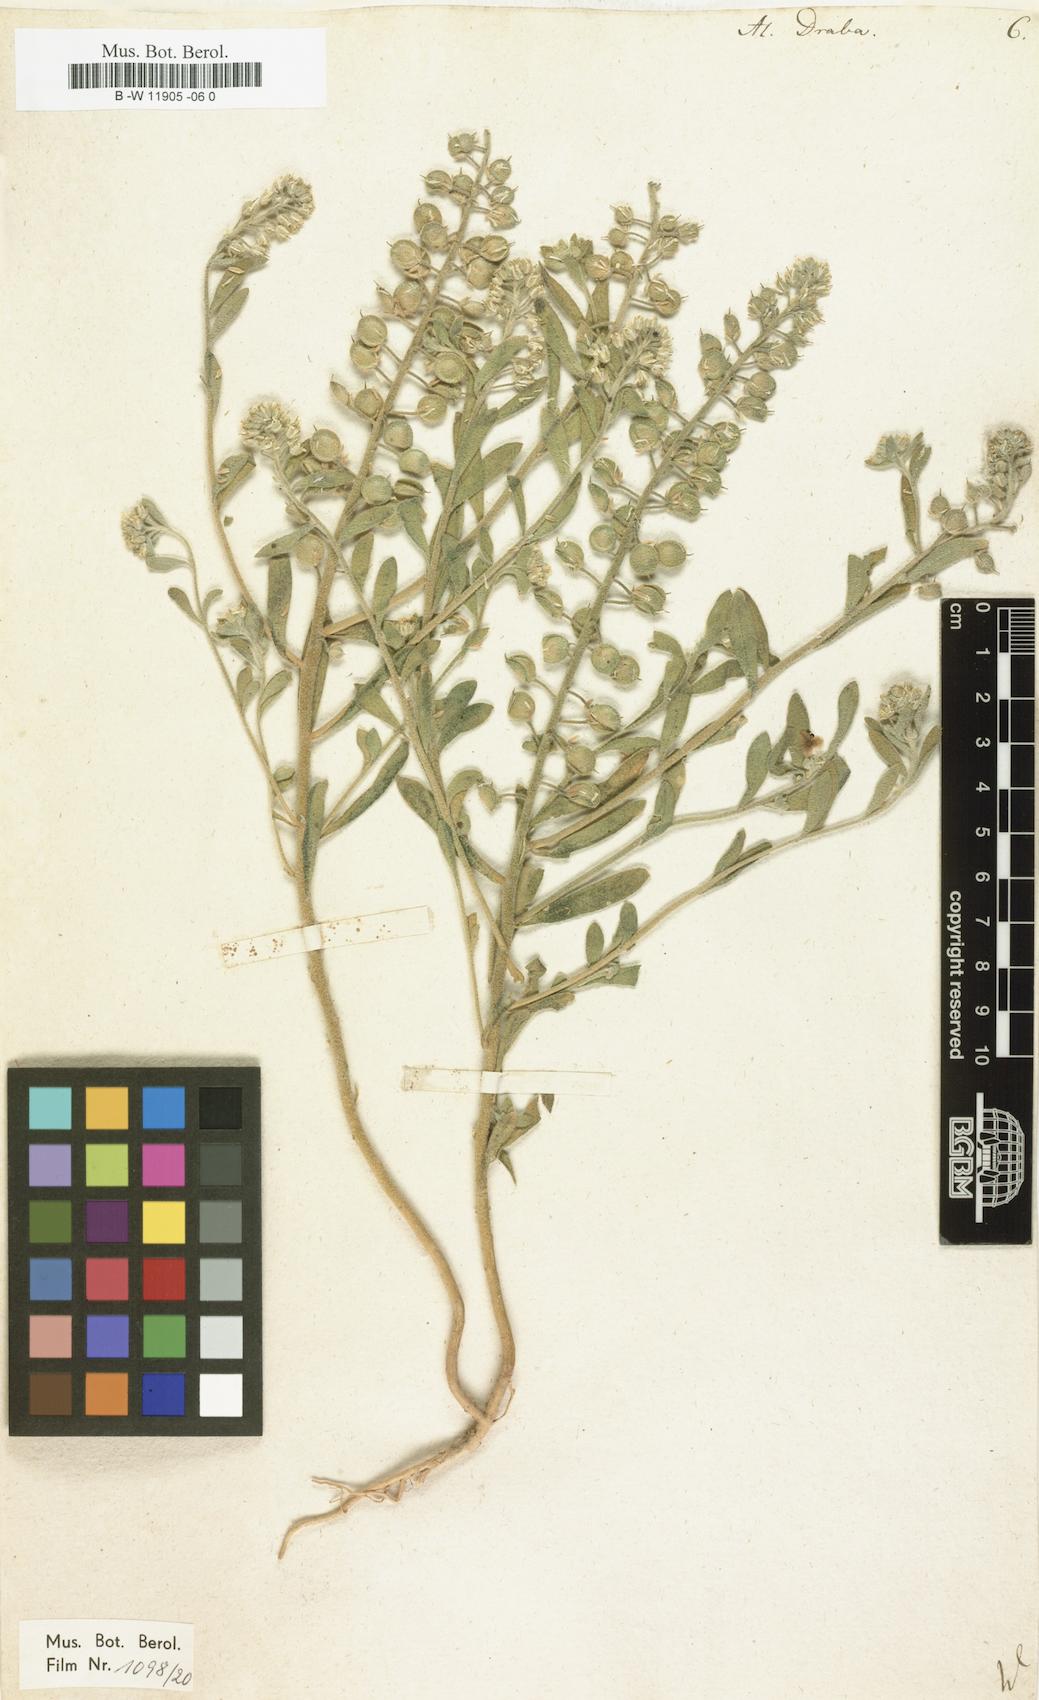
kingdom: Plantae
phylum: Tracheophyta
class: Magnoliopsida
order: Brassicales
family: Brassicaceae
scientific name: Brassicaceae
